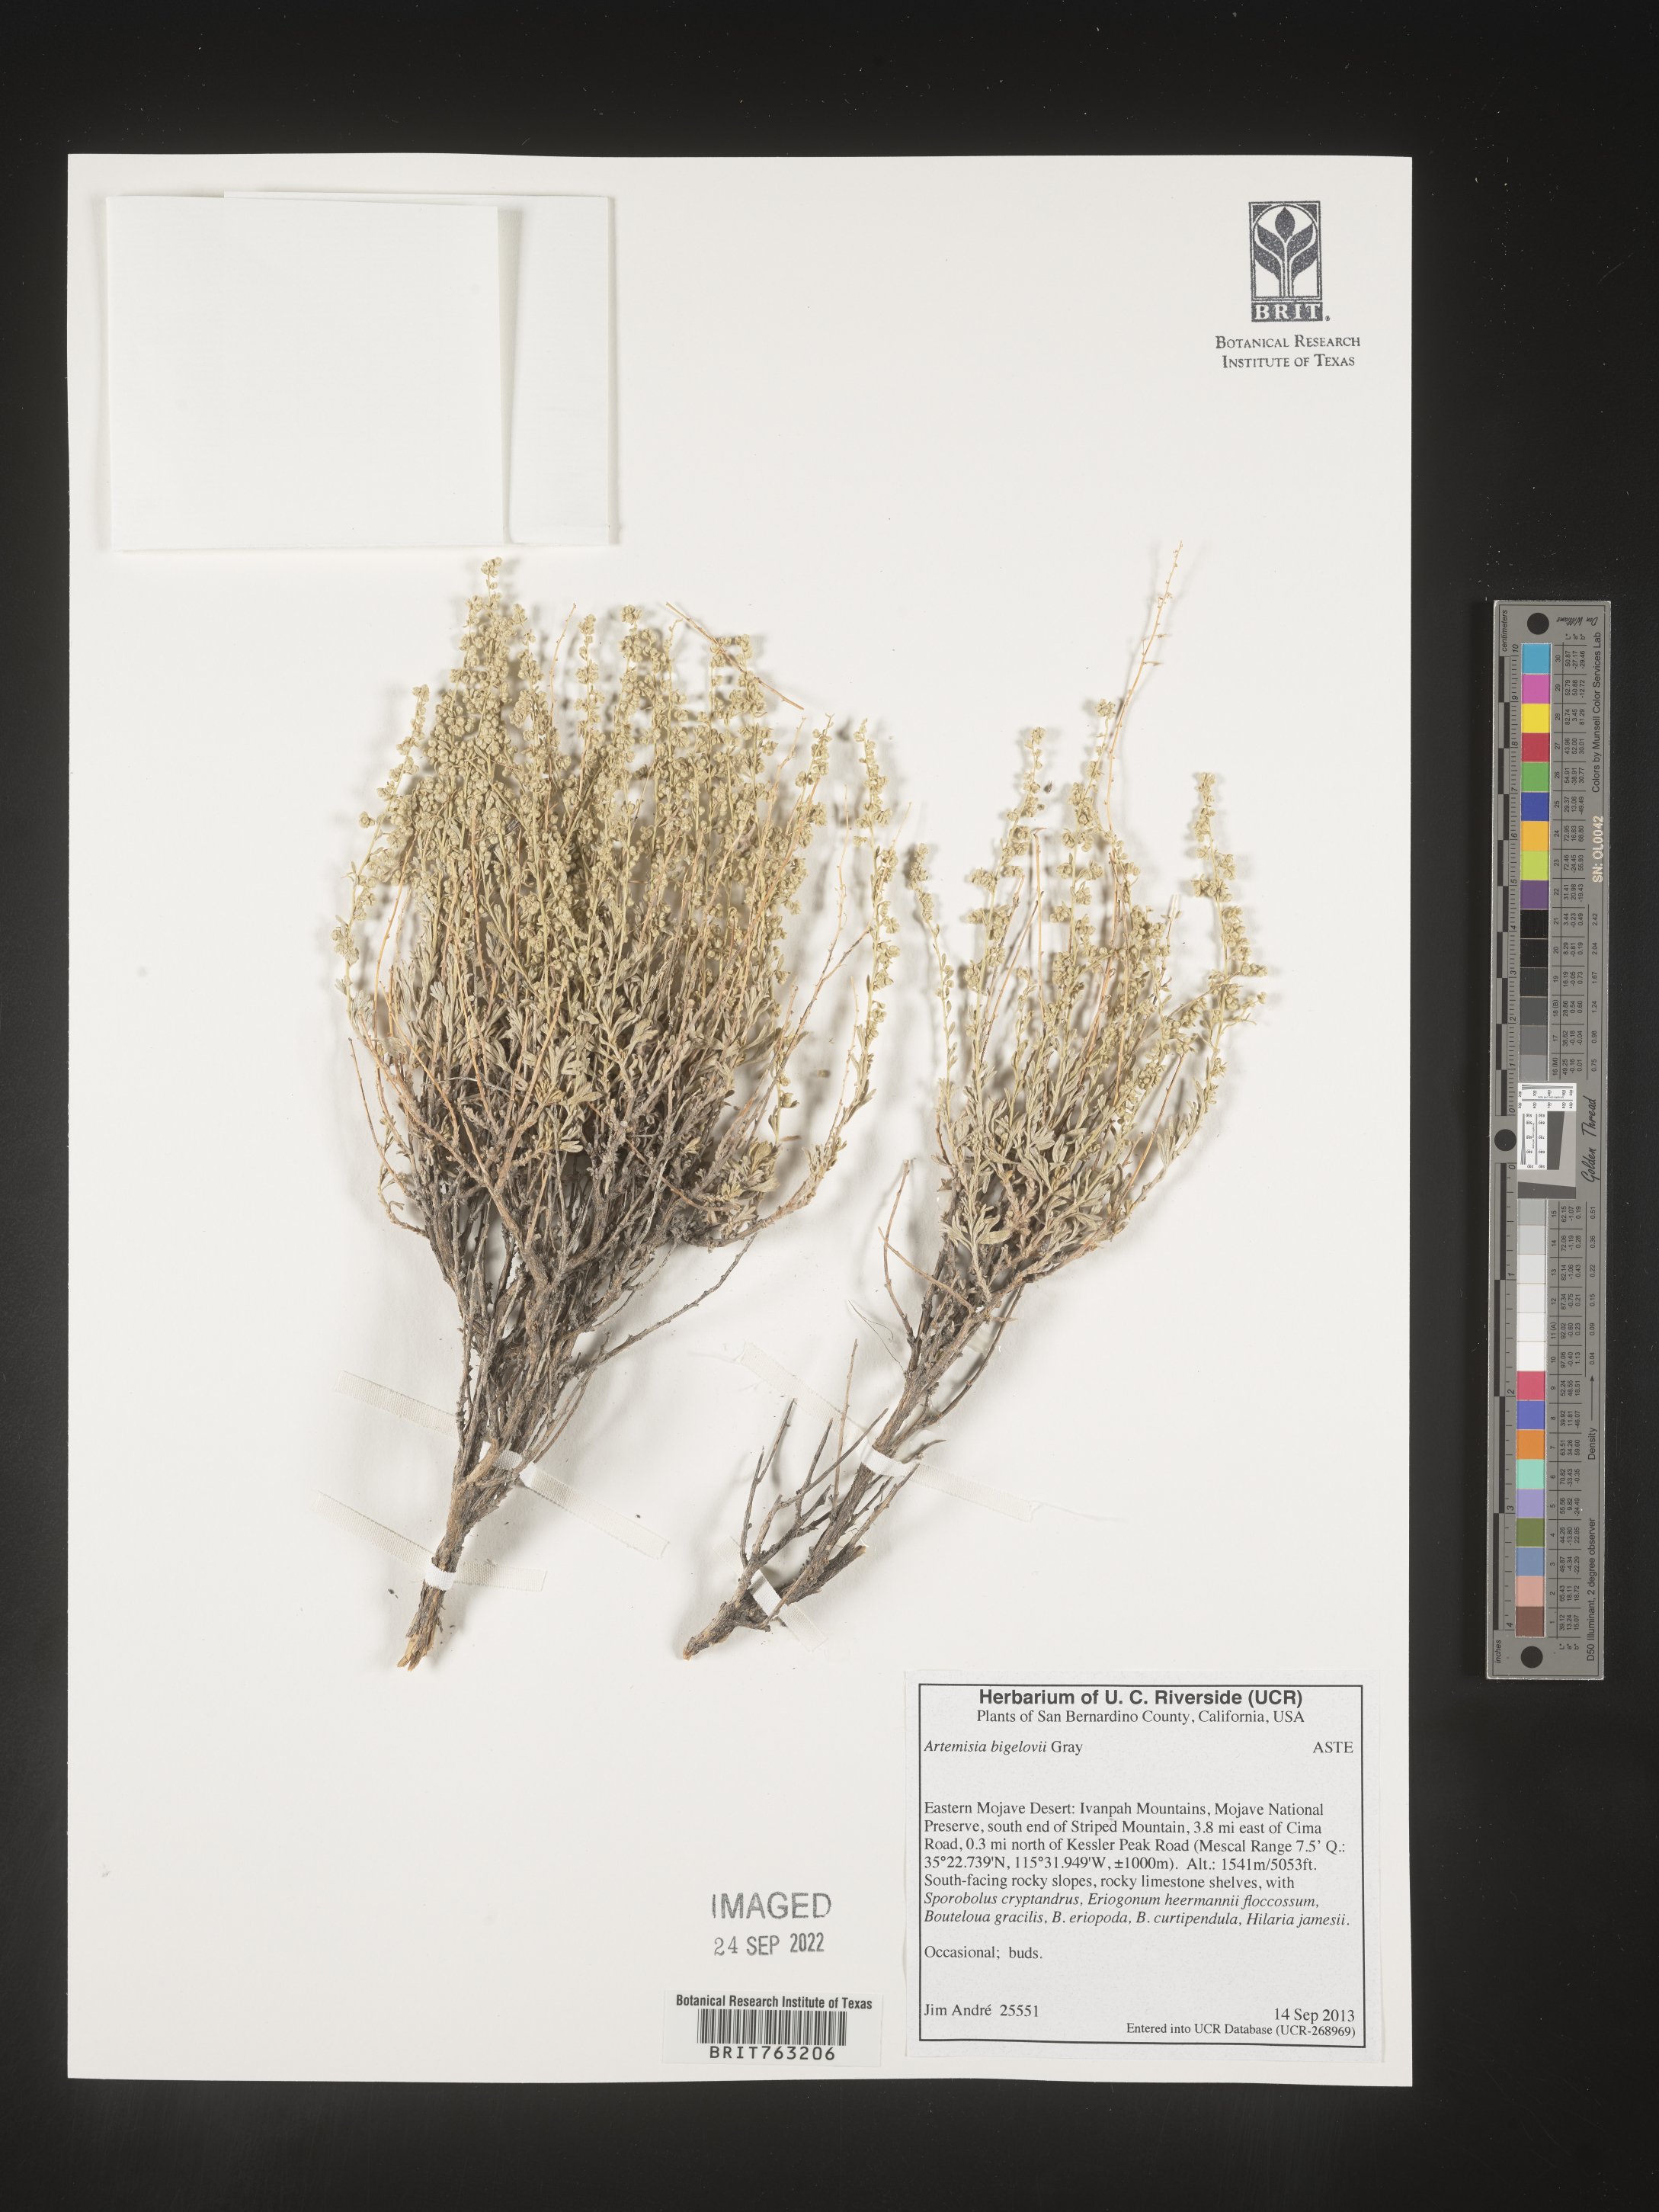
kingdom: Plantae
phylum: Tracheophyta
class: Magnoliopsida
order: Asterales
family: Asteraceae
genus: Artemisia
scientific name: Artemisia bigelovii
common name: Bigelow sagebrush
